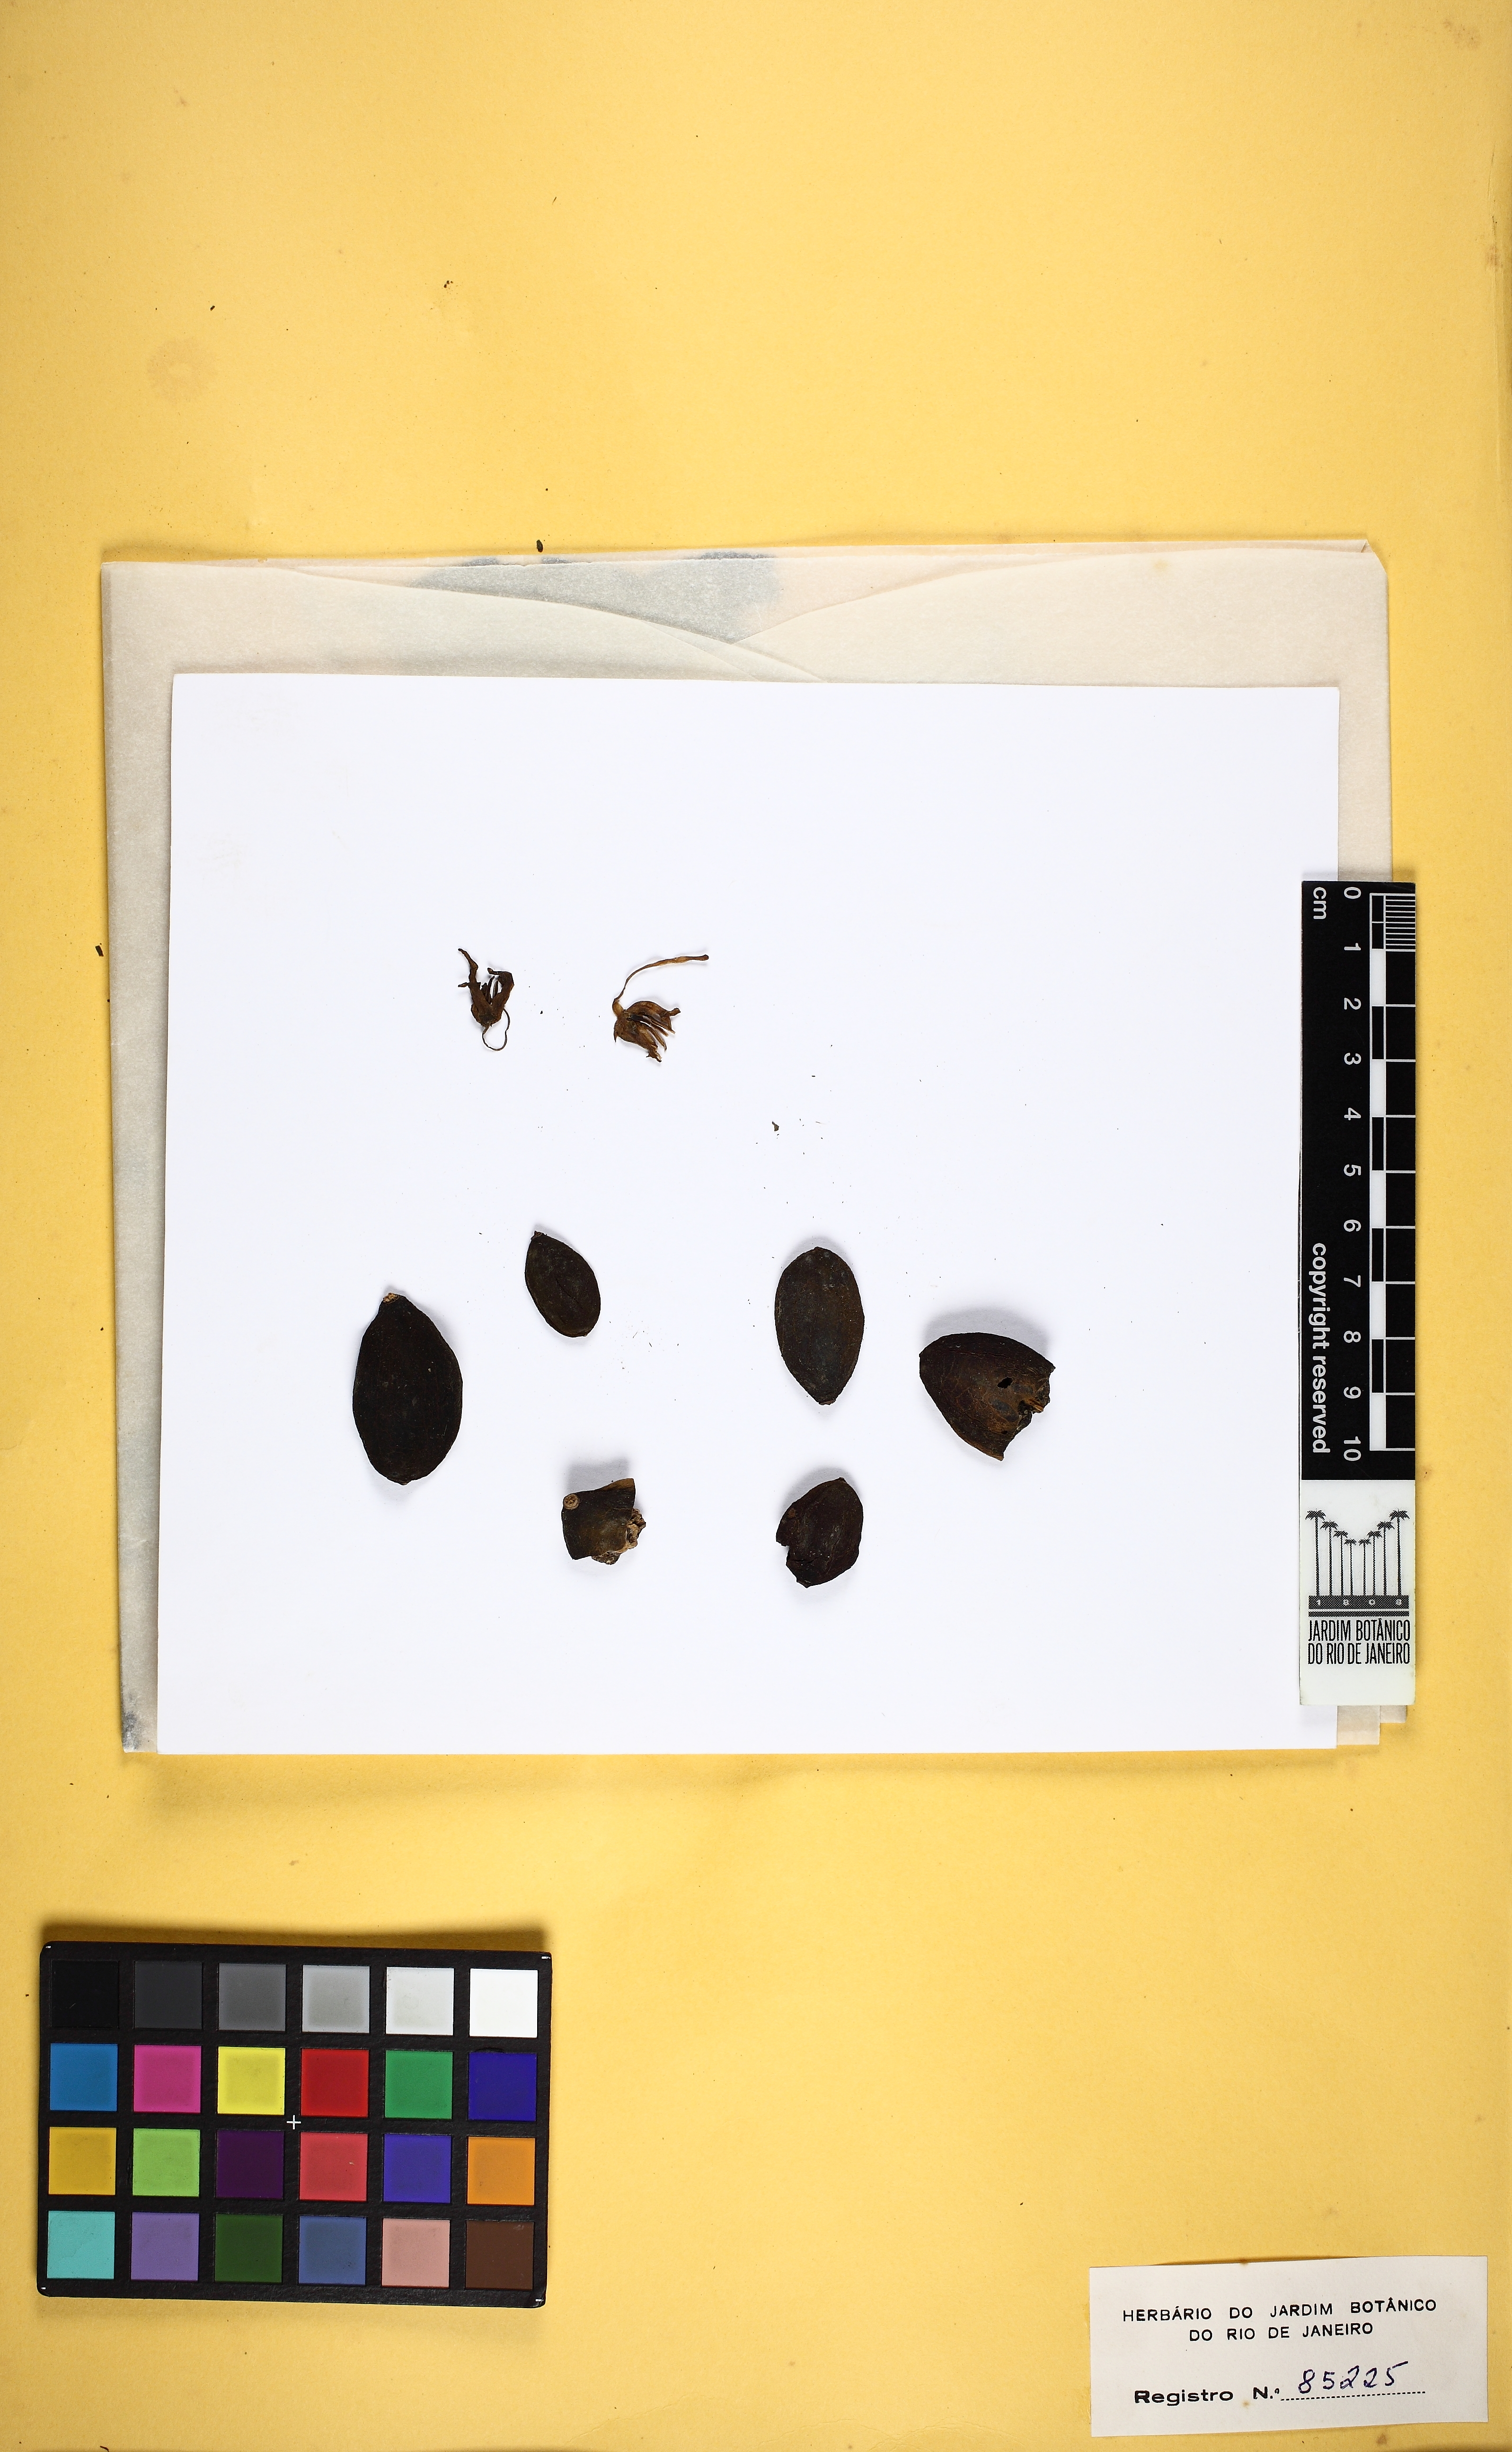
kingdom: Plantae
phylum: Tracheophyta
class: Magnoliopsida
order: Solanales
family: Solanaceae
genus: Solanum
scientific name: Solanum melissarum
